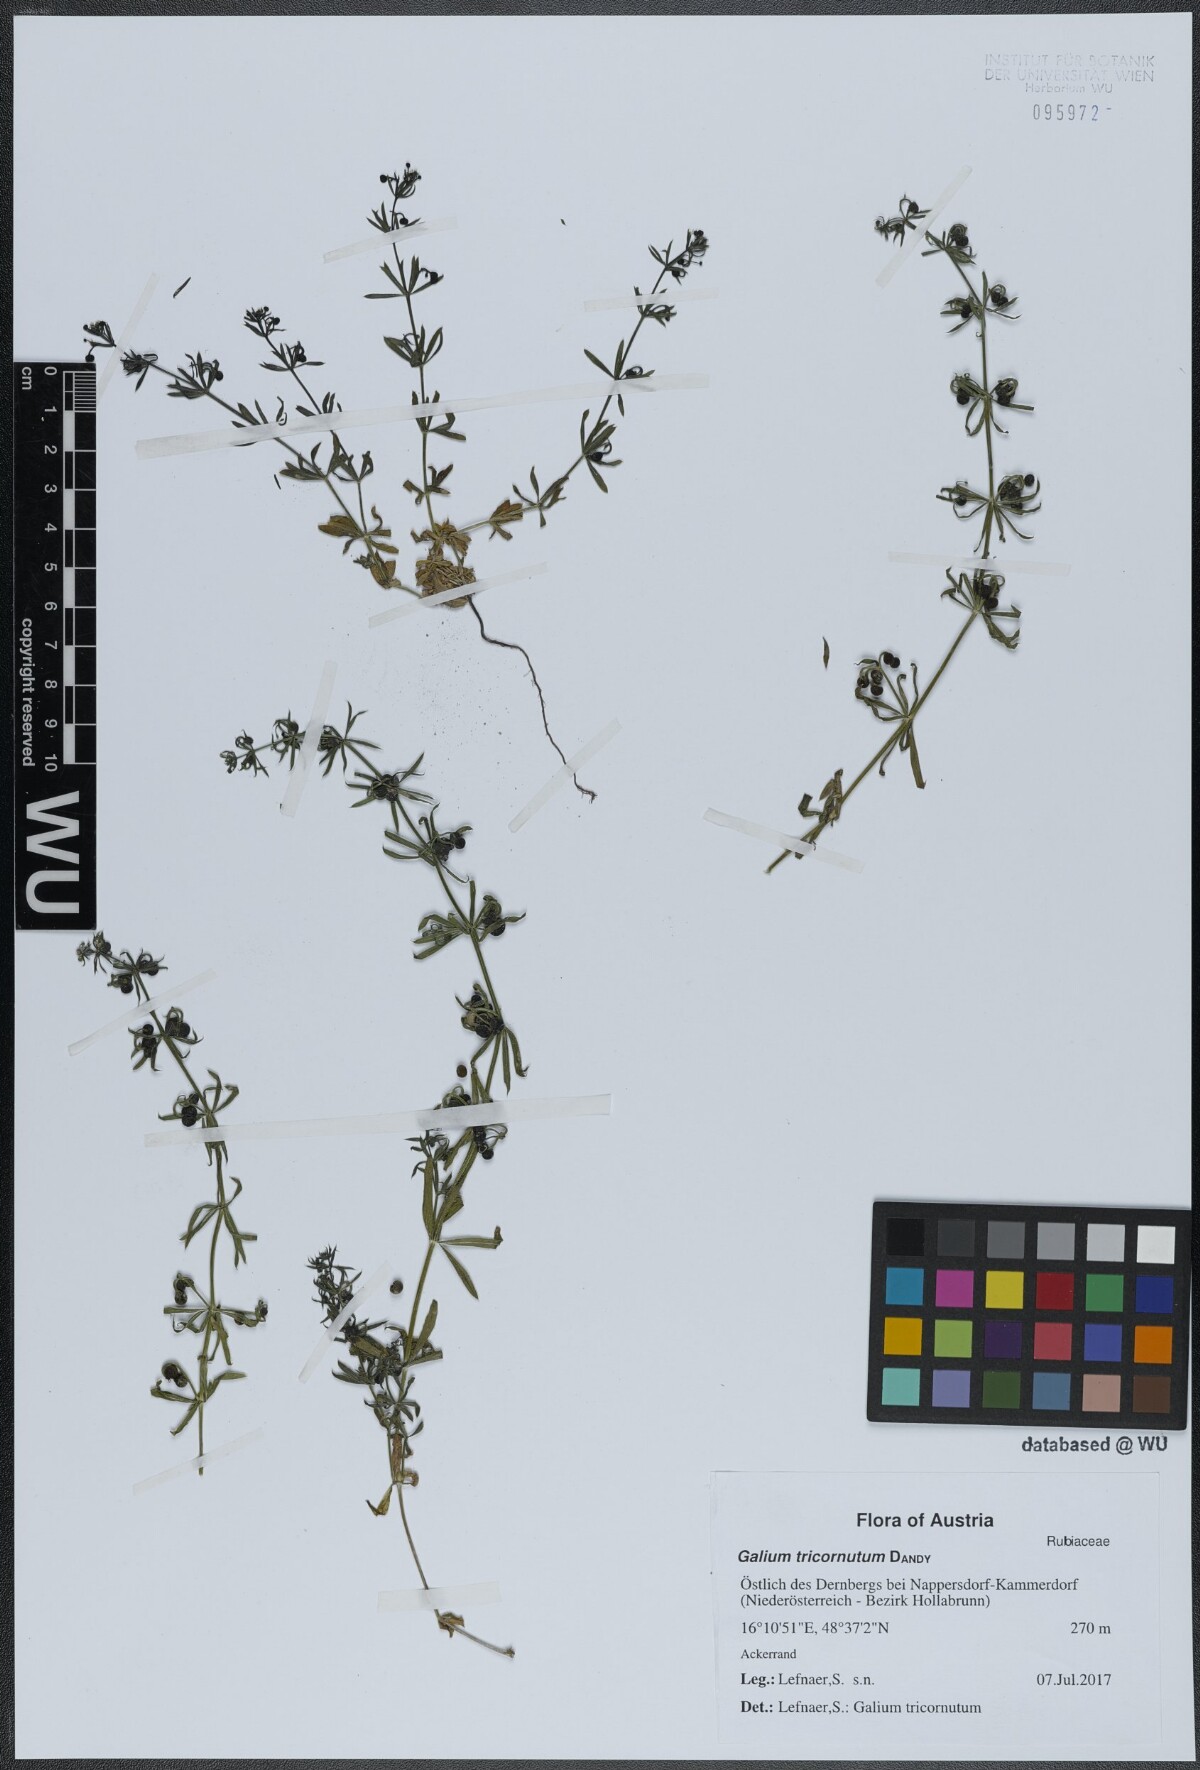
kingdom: Plantae
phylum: Tracheophyta
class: Magnoliopsida
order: Gentianales
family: Rubiaceae
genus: Galium
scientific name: Galium tricornutum
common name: Corn cleavers
